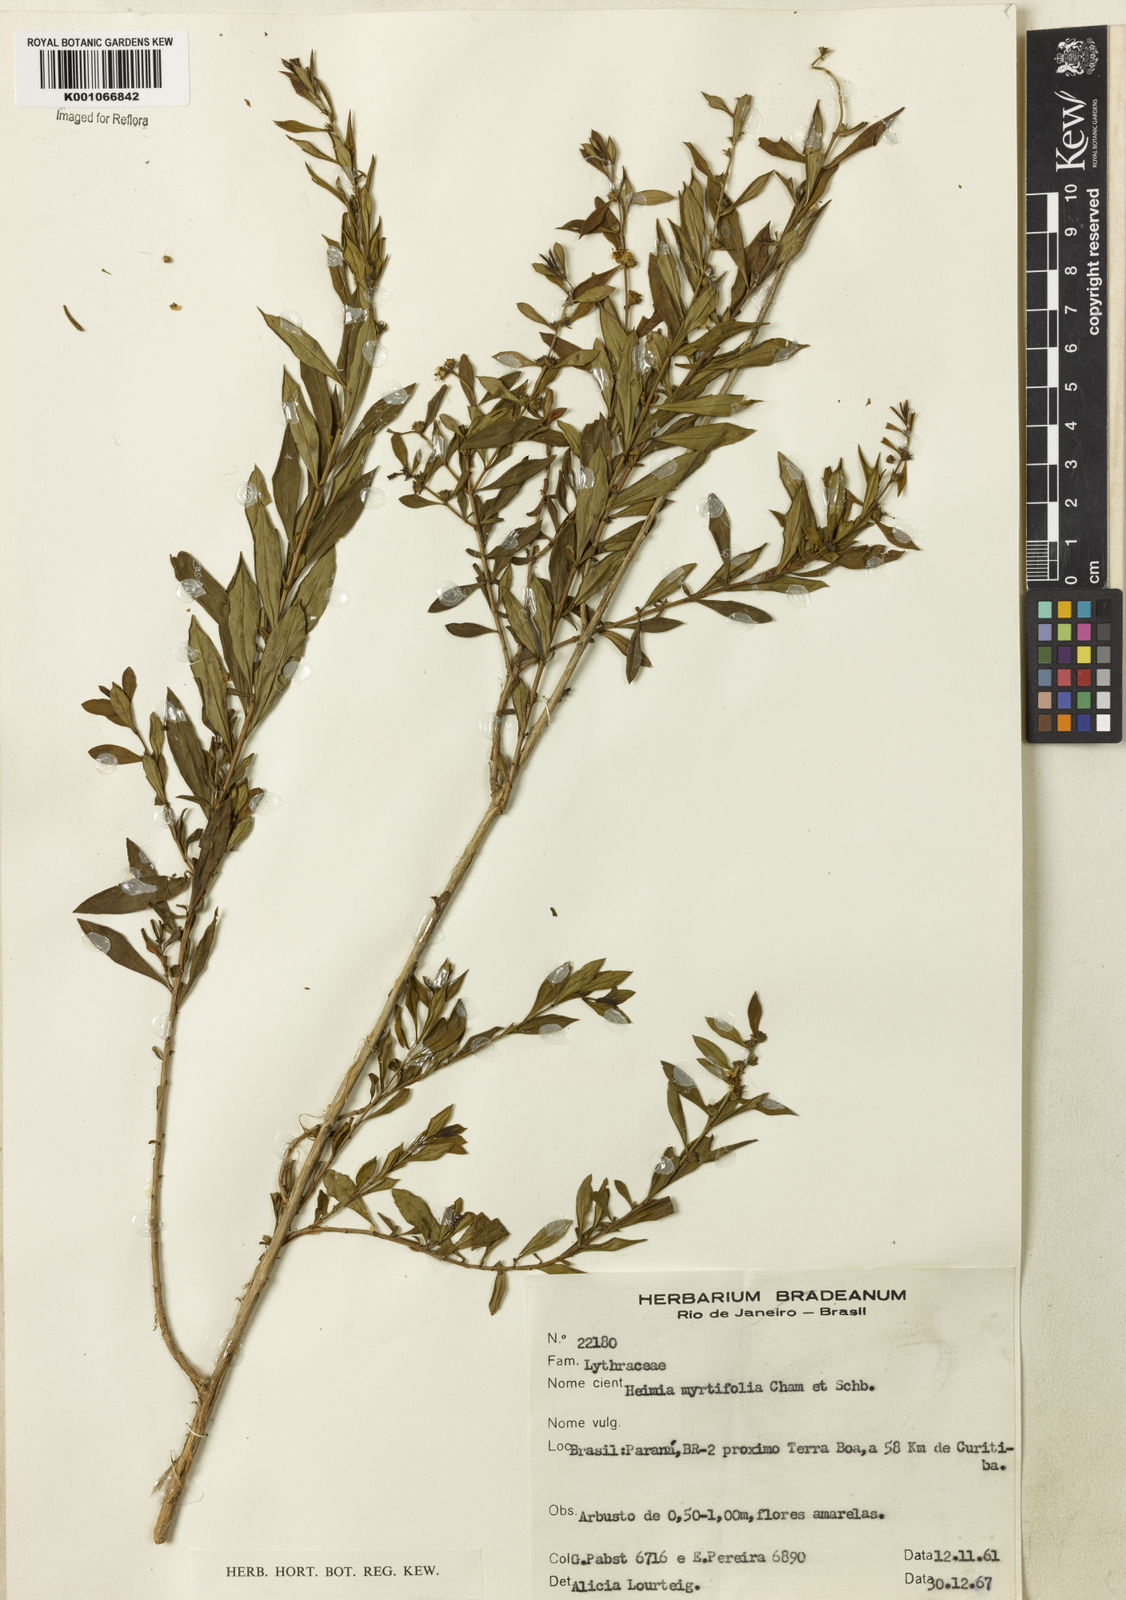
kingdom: Plantae
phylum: Tracheophyta
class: Magnoliopsida
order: Myrtales
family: Lythraceae
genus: Heimia
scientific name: Heimia apetala
